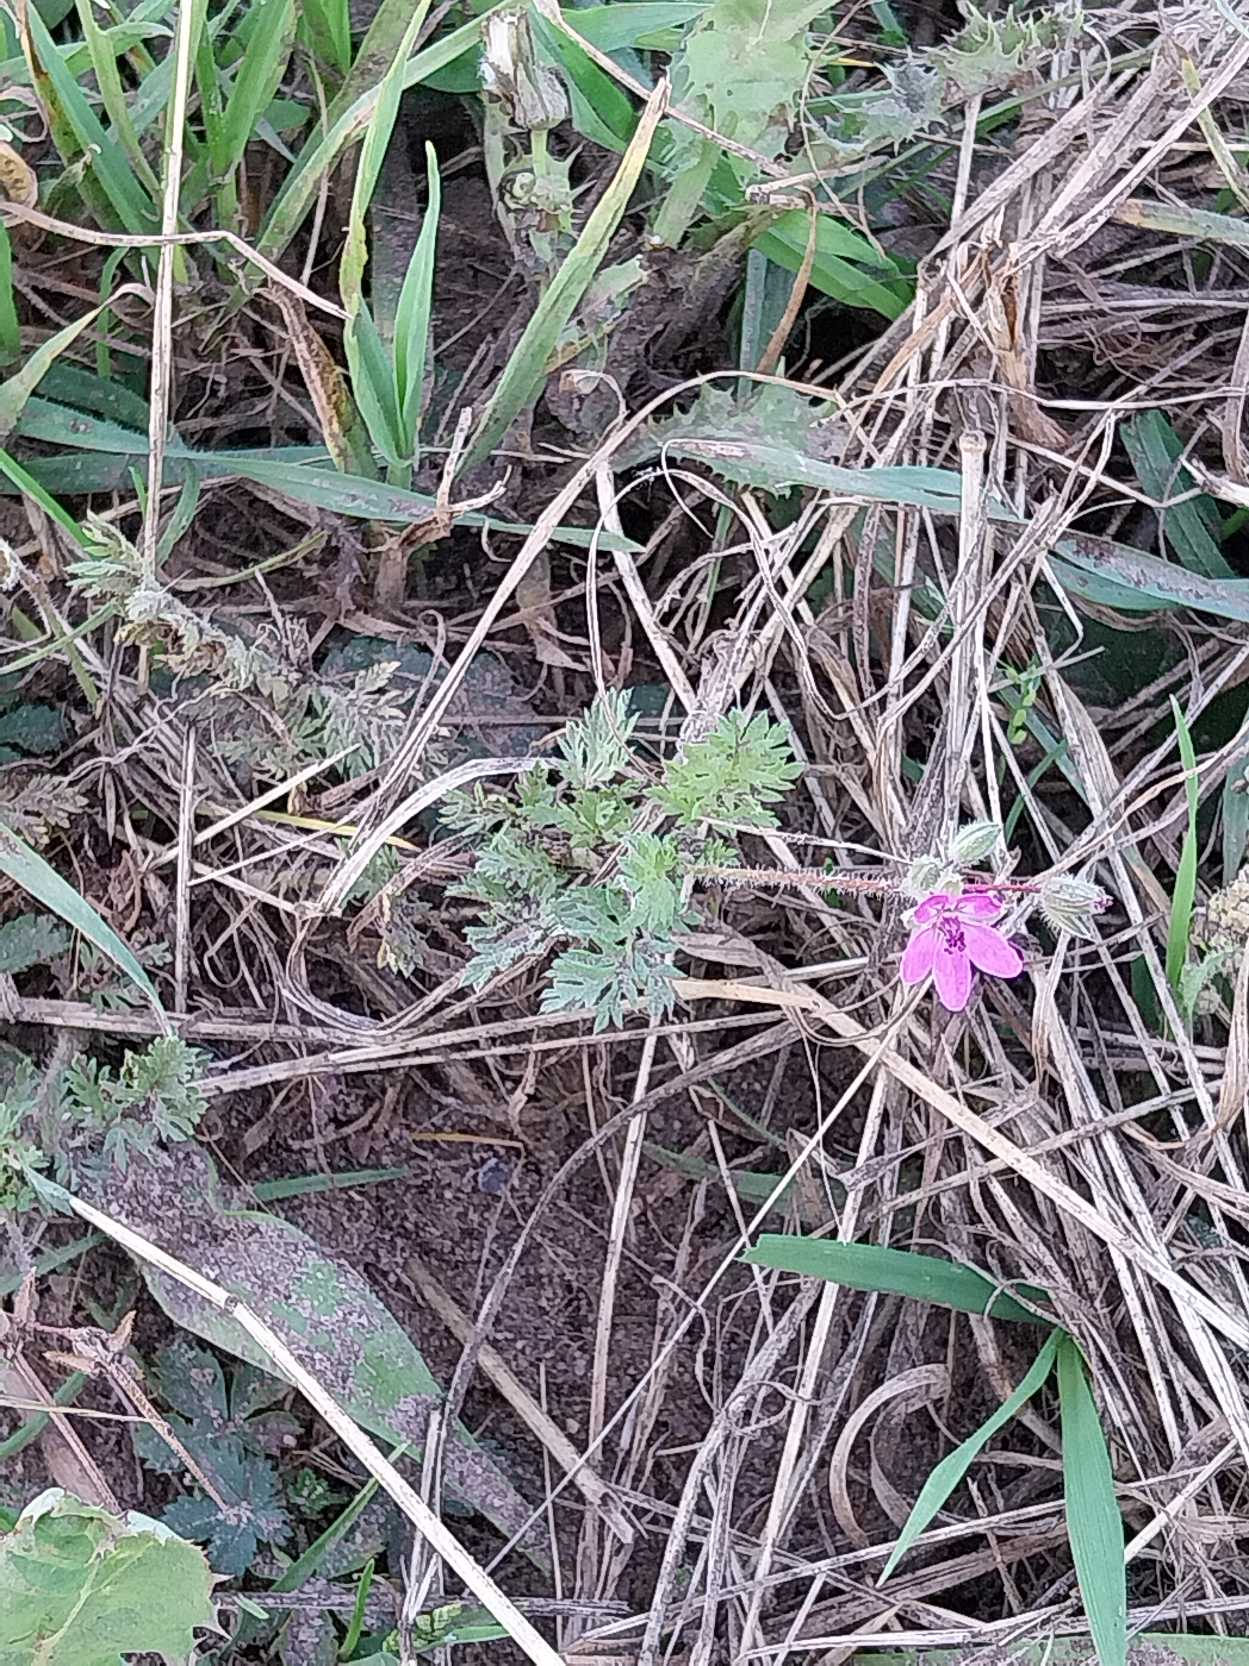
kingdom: Plantae
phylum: Tracheophyta
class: Magnoliopsida
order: Geraniales
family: Geraniaceae
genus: Erodium
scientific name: Erodium cicutarium
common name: Hejrenæb
